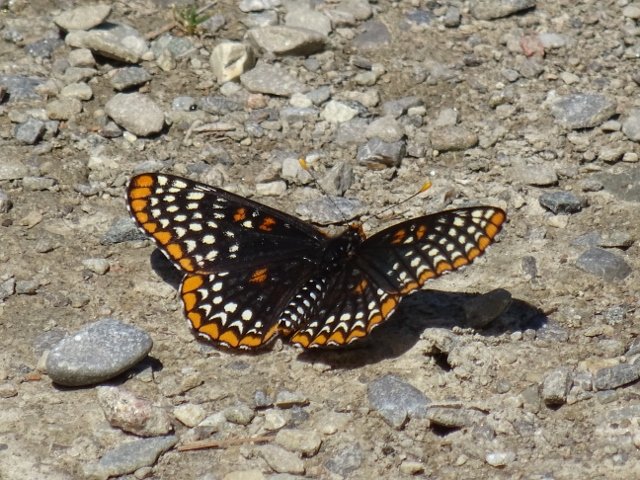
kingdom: Animalia
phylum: Arthropoda
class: Insecta
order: Lepidoptera
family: Nymphalidae
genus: Euphydryas
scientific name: Euphydryas phaeton
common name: Baltimore Checkerspot
